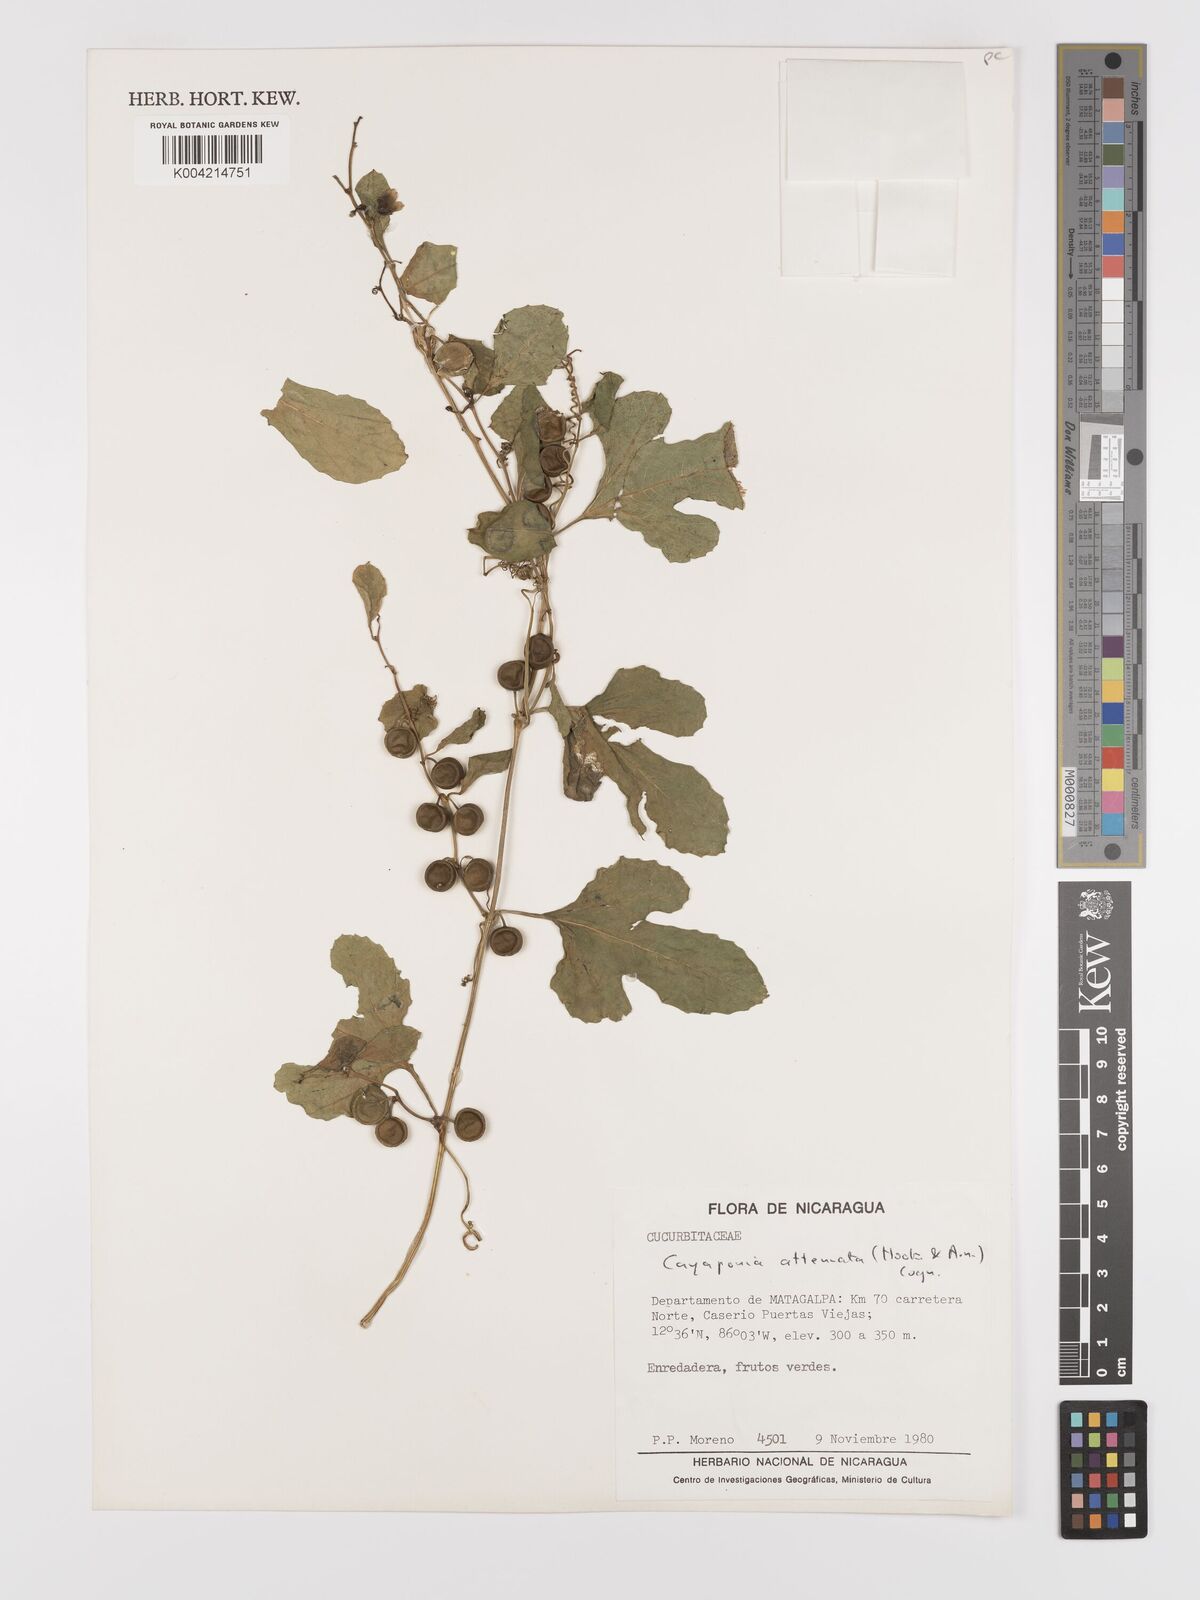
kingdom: Plantae
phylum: Tracheophyta
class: Magnoliopsida
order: Cucurbitales
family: Cucurbitaceae
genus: Cayaponia
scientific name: Cayaponia attenuata
